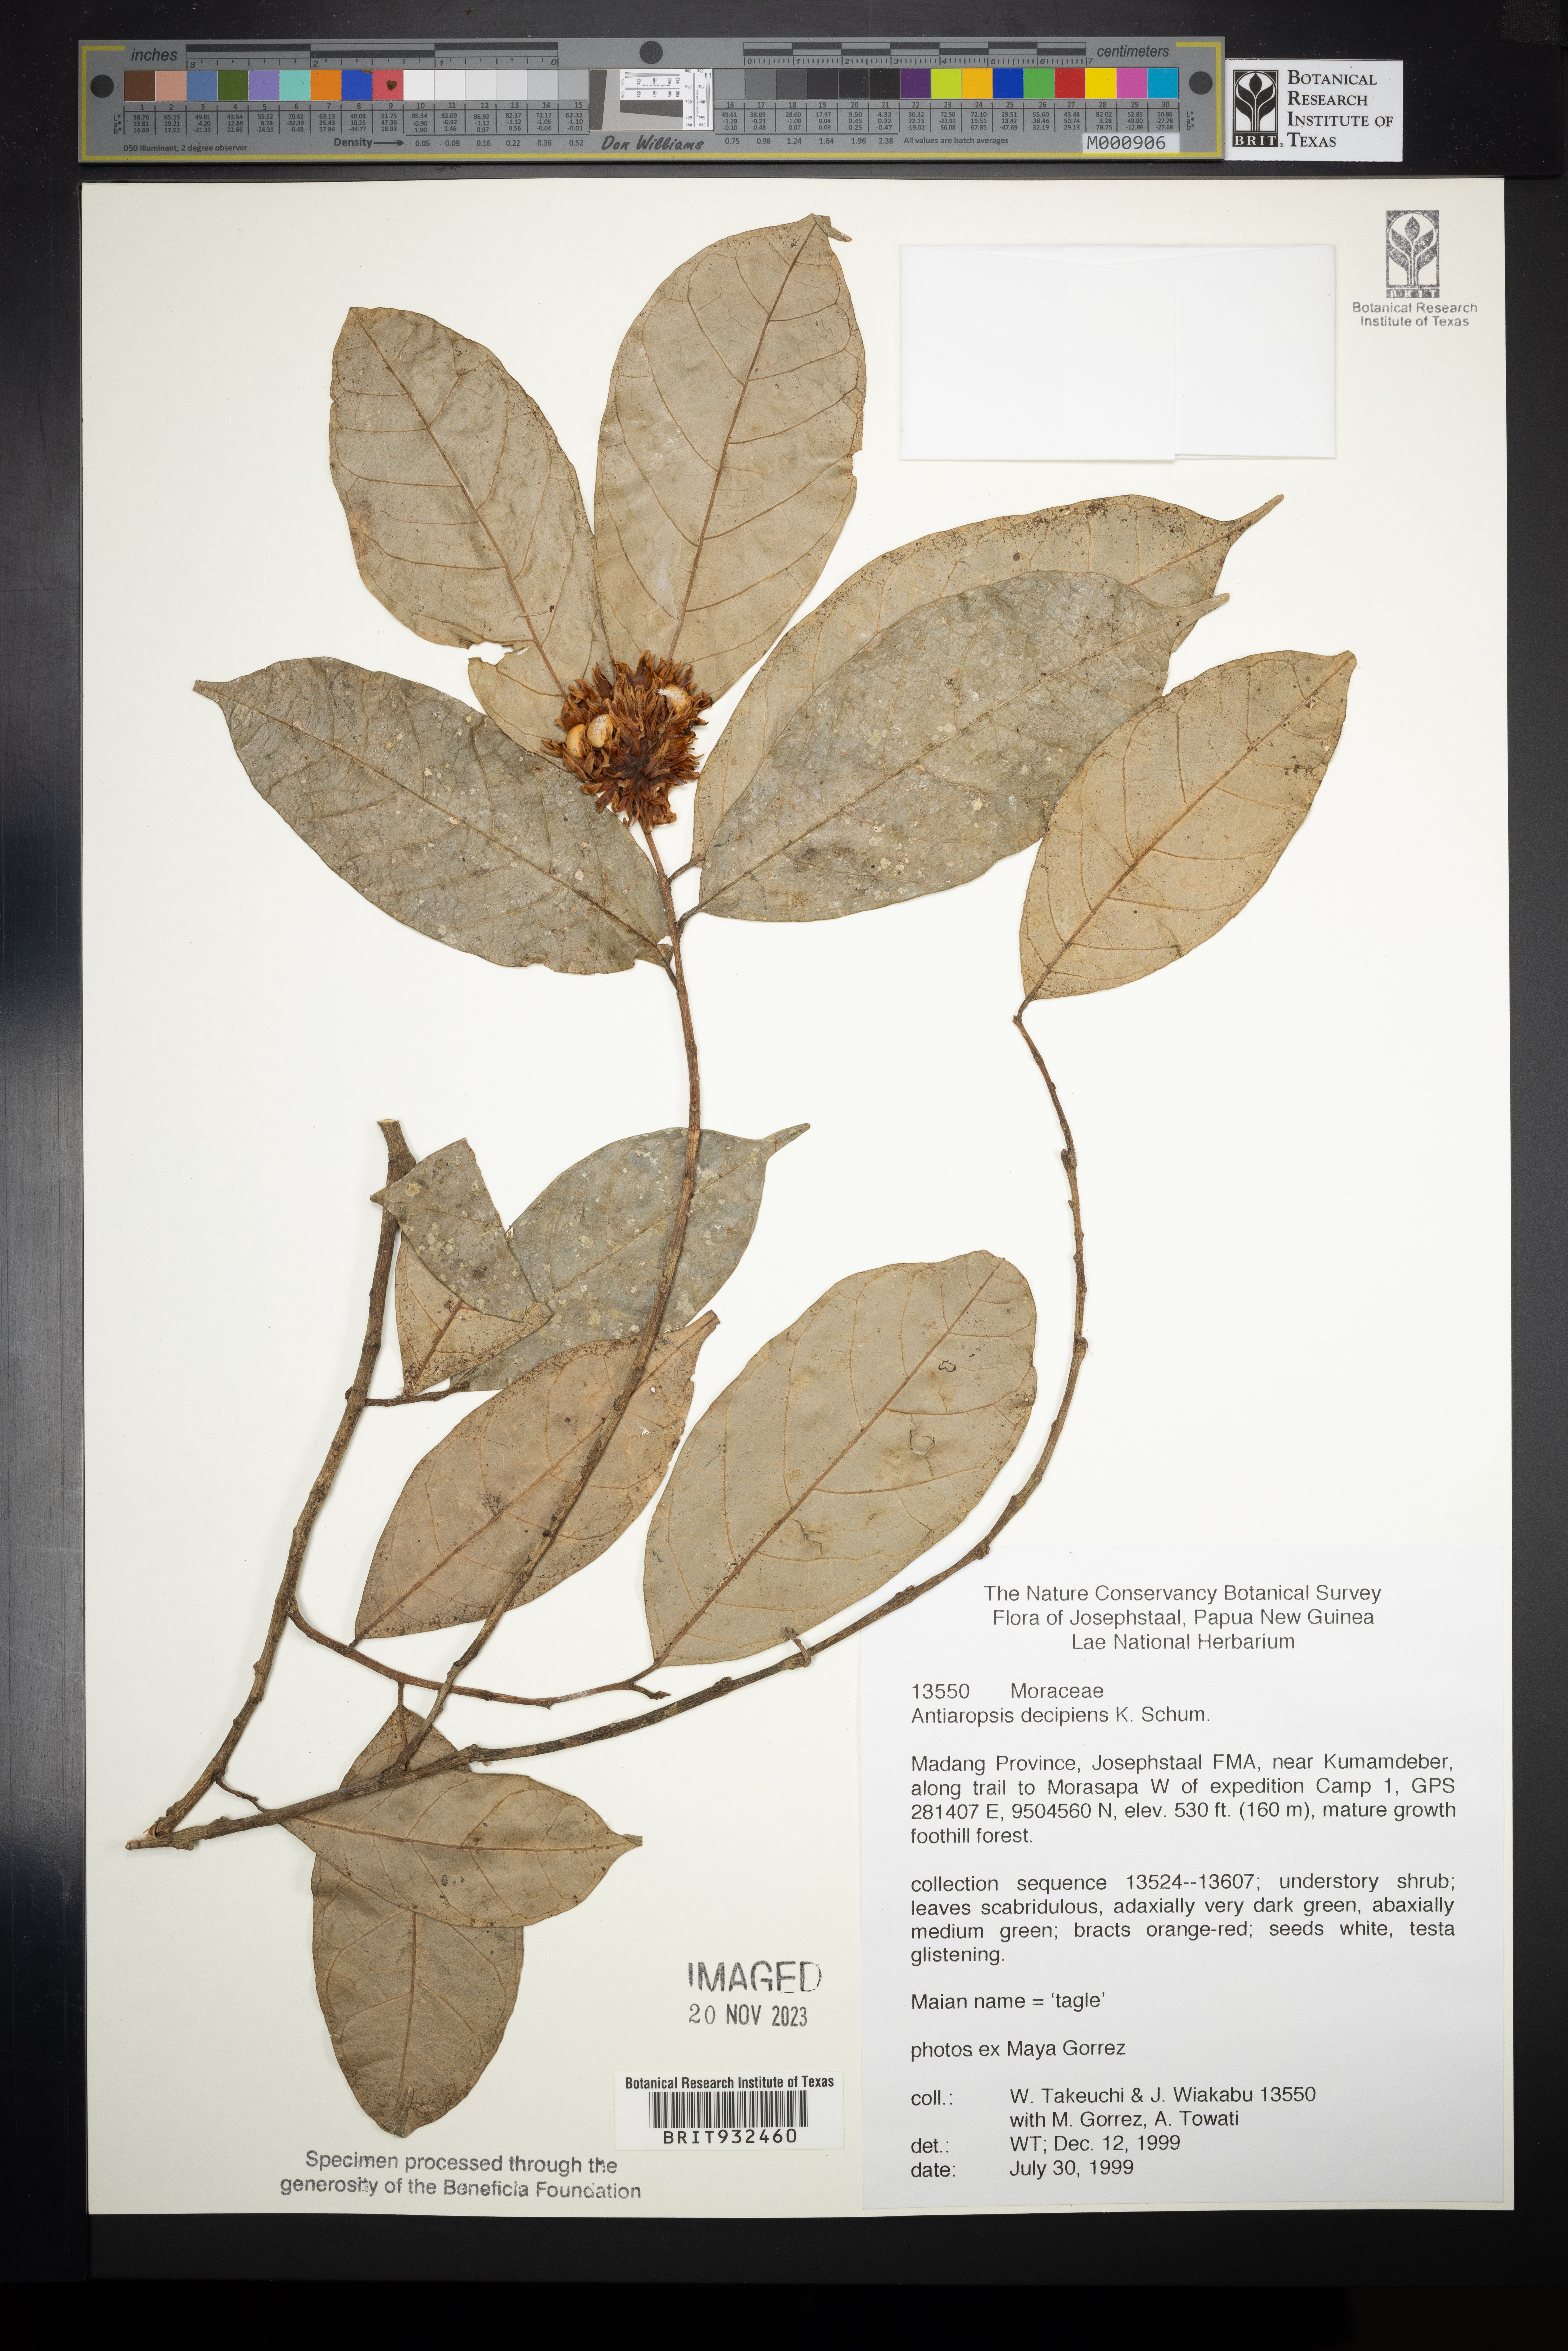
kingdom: Plantae
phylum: Tracheophyta
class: Magnoliopsida
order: Rosales
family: Moraceae
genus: Antiaropsis
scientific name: Antiaropsis
